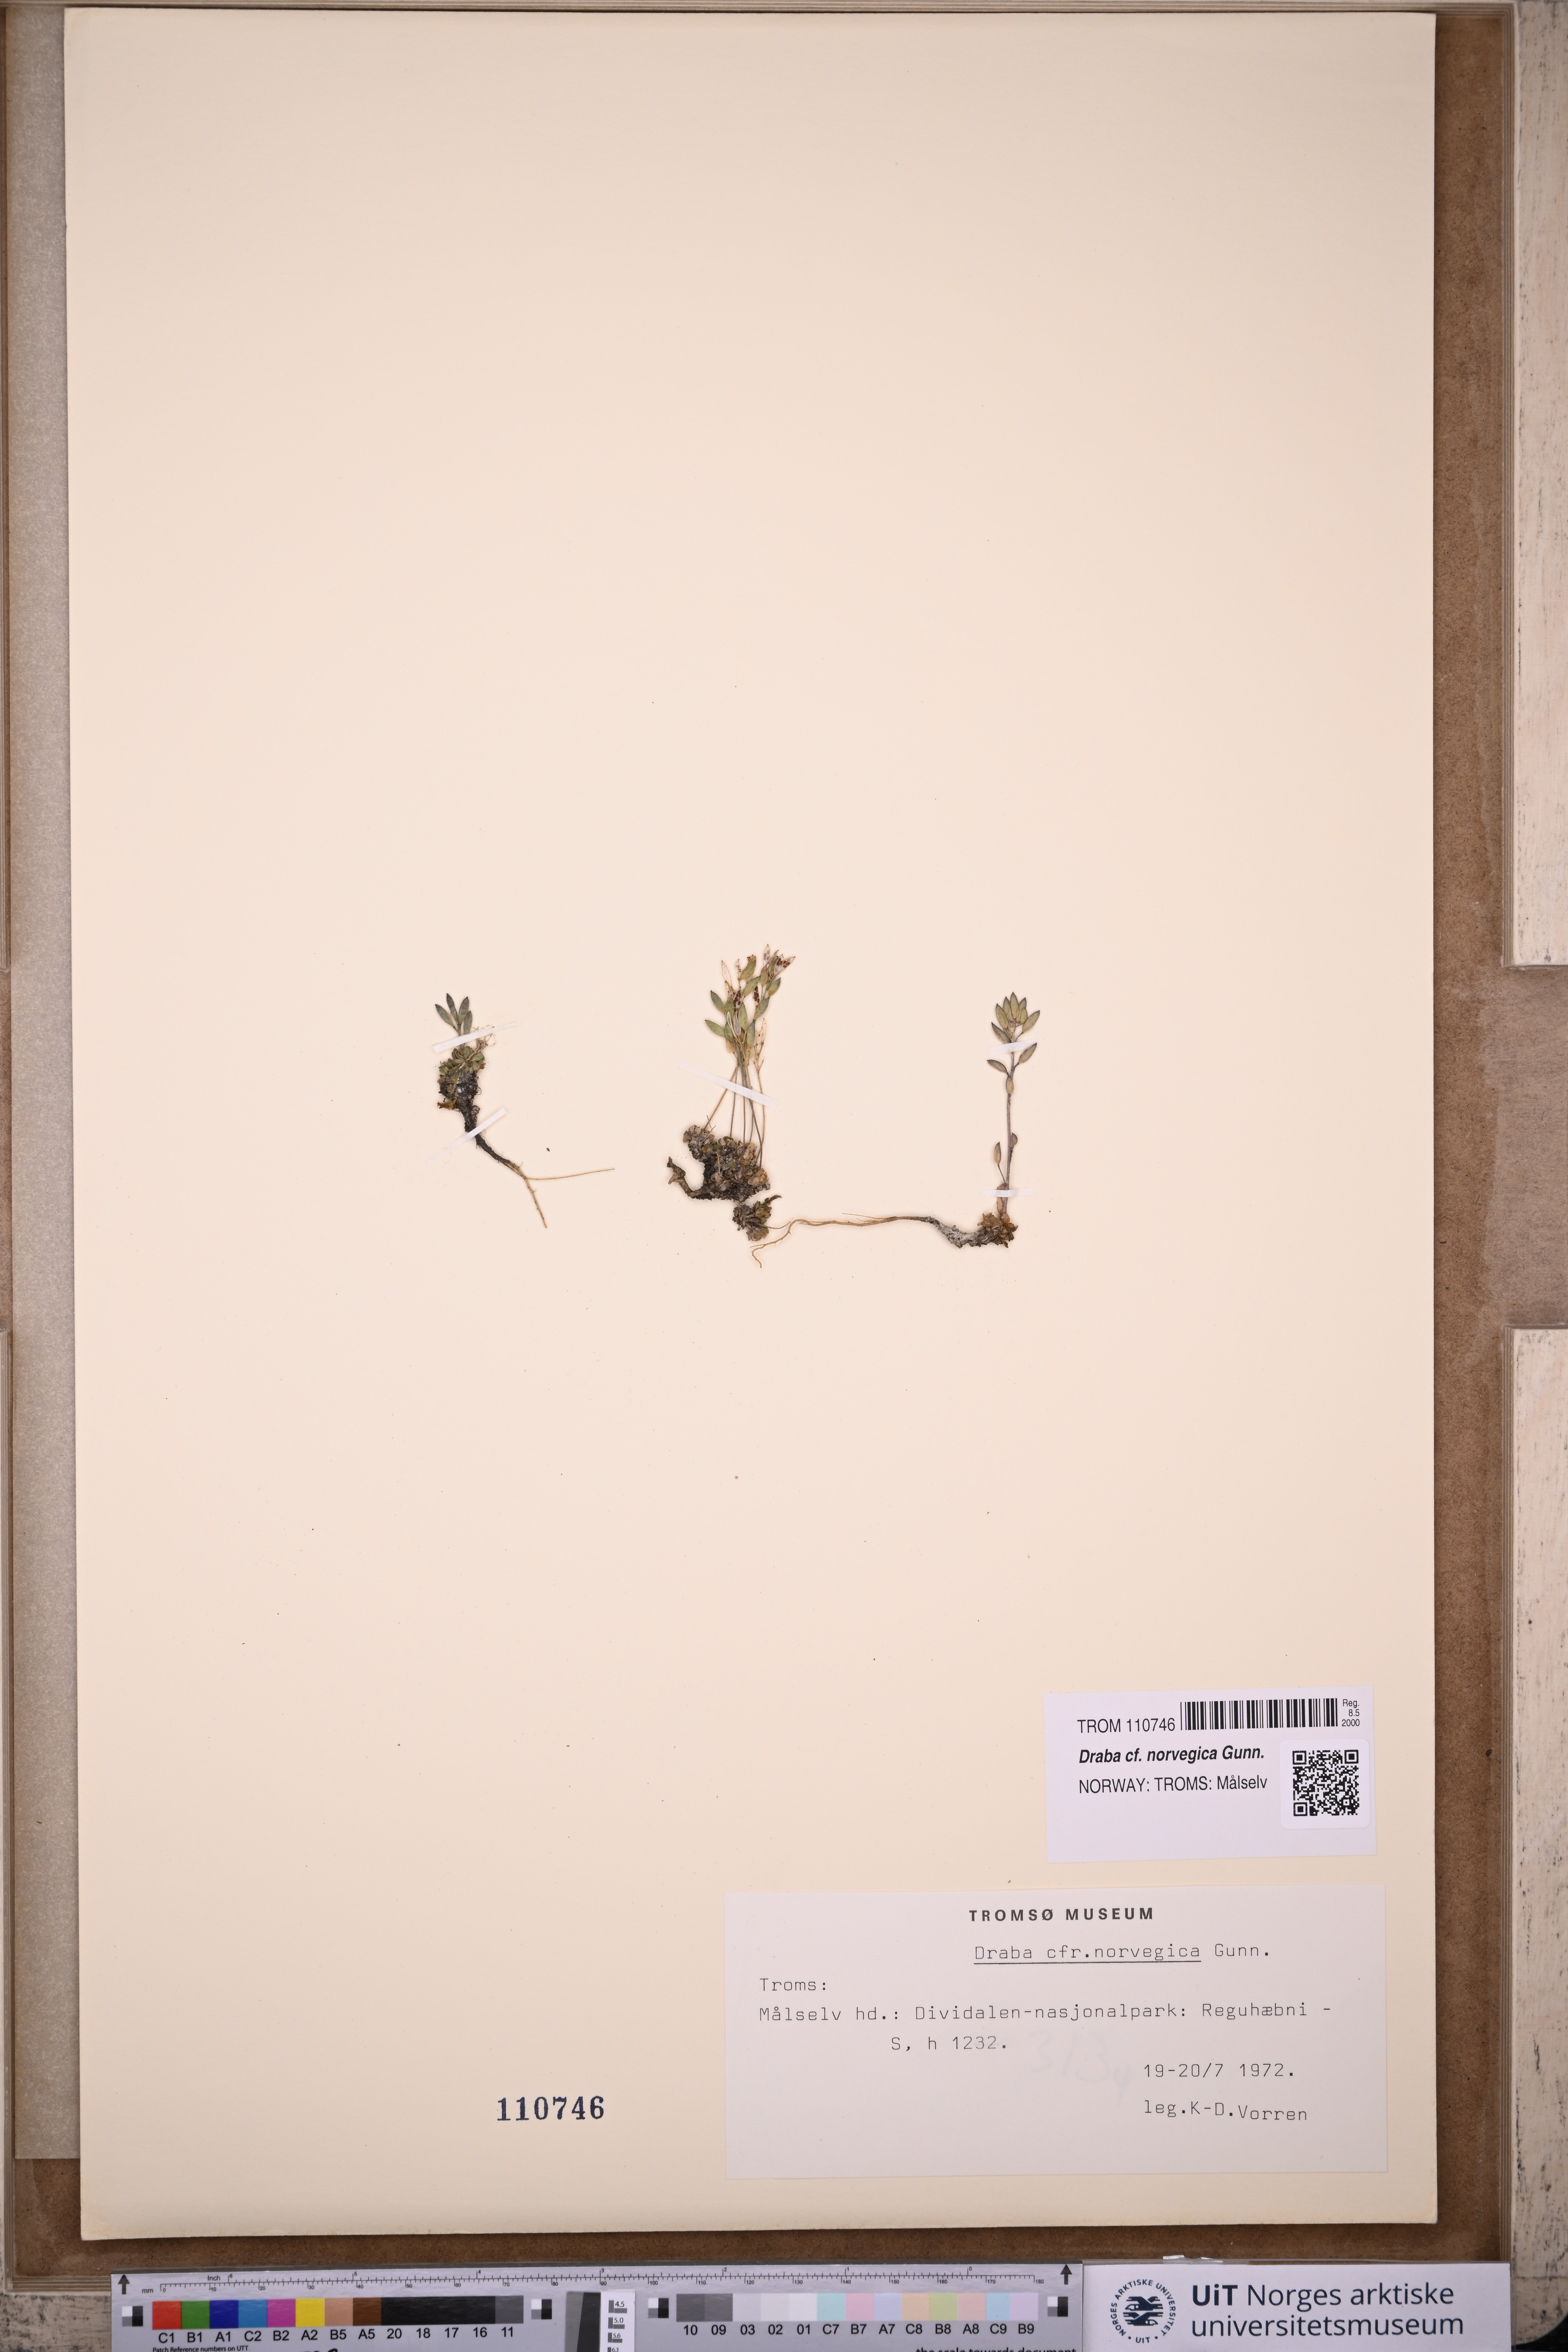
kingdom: Plantae
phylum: Tracheophyta
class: Magnoliopsida
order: Brassicales
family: Brassicaceae
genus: Draba
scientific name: Draba norvegica
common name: Rock whitlowgrass
